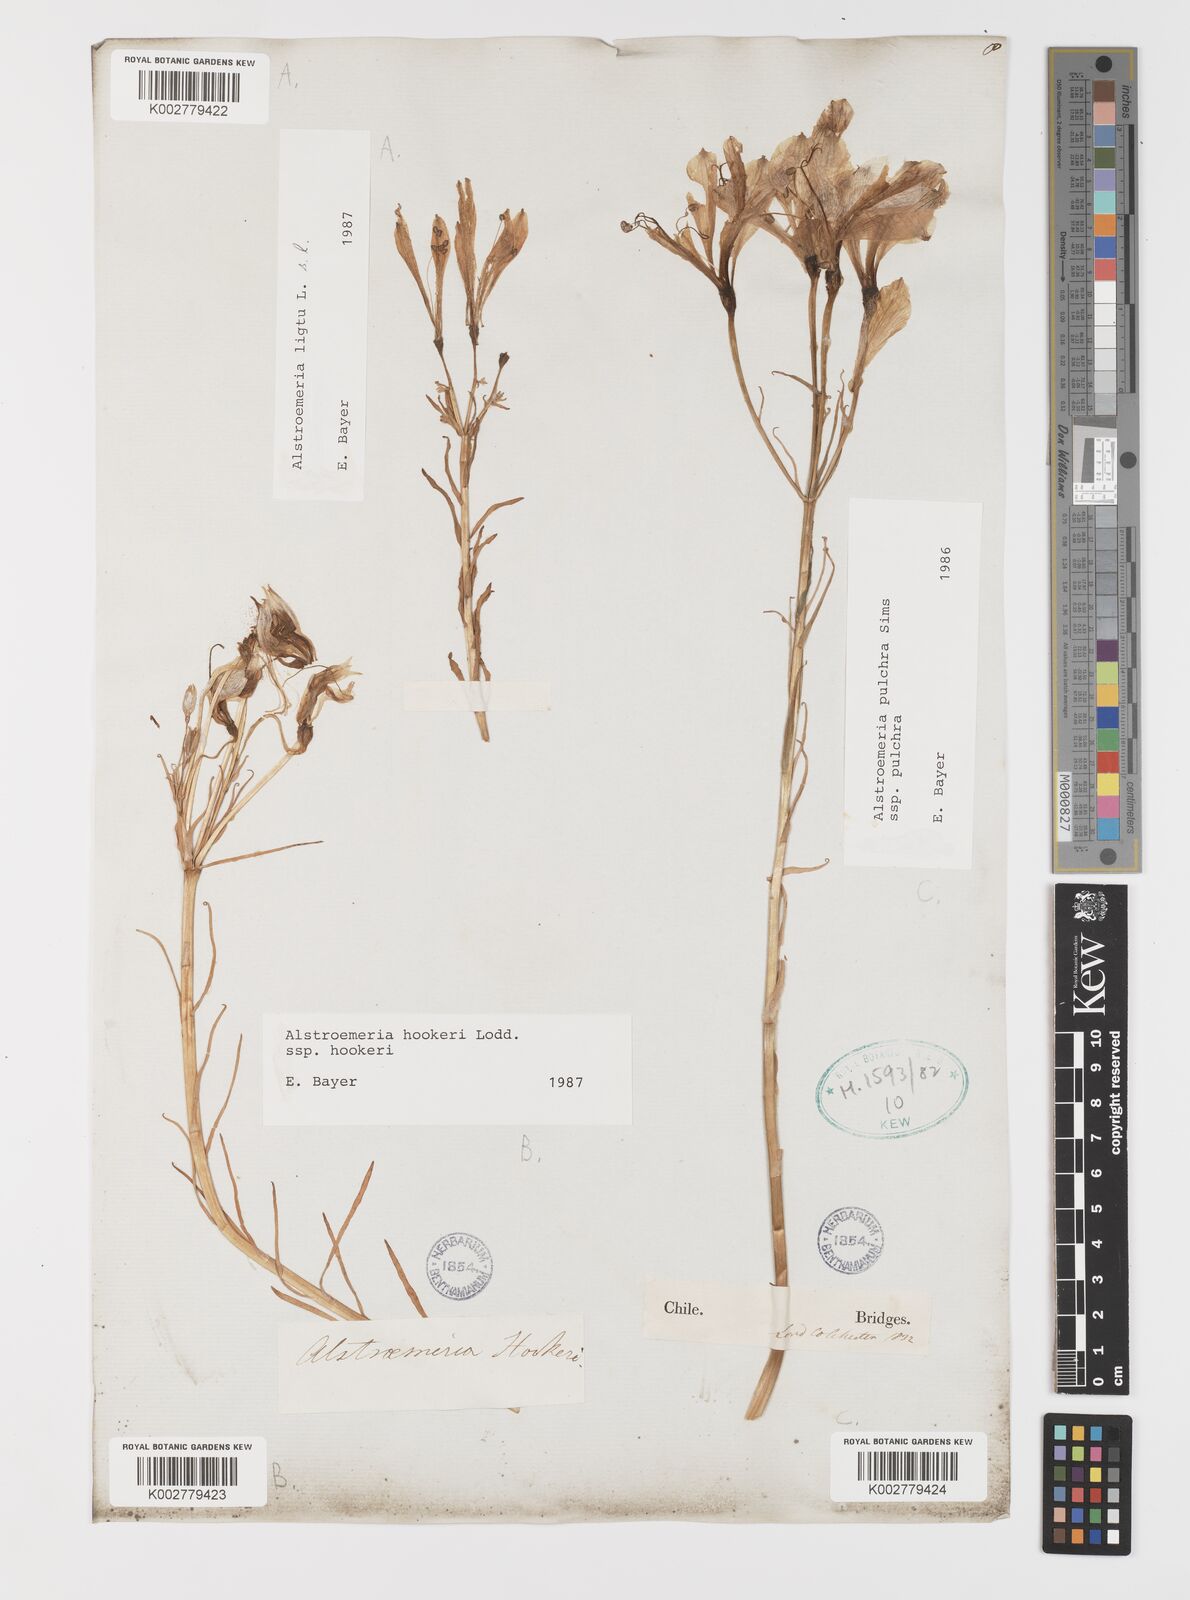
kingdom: Plantae
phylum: Tracheophyta
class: Liliopsida
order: Liliales
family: Alstroemeriaceae
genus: Alstroemeria
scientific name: Alstroemeria pulchra
